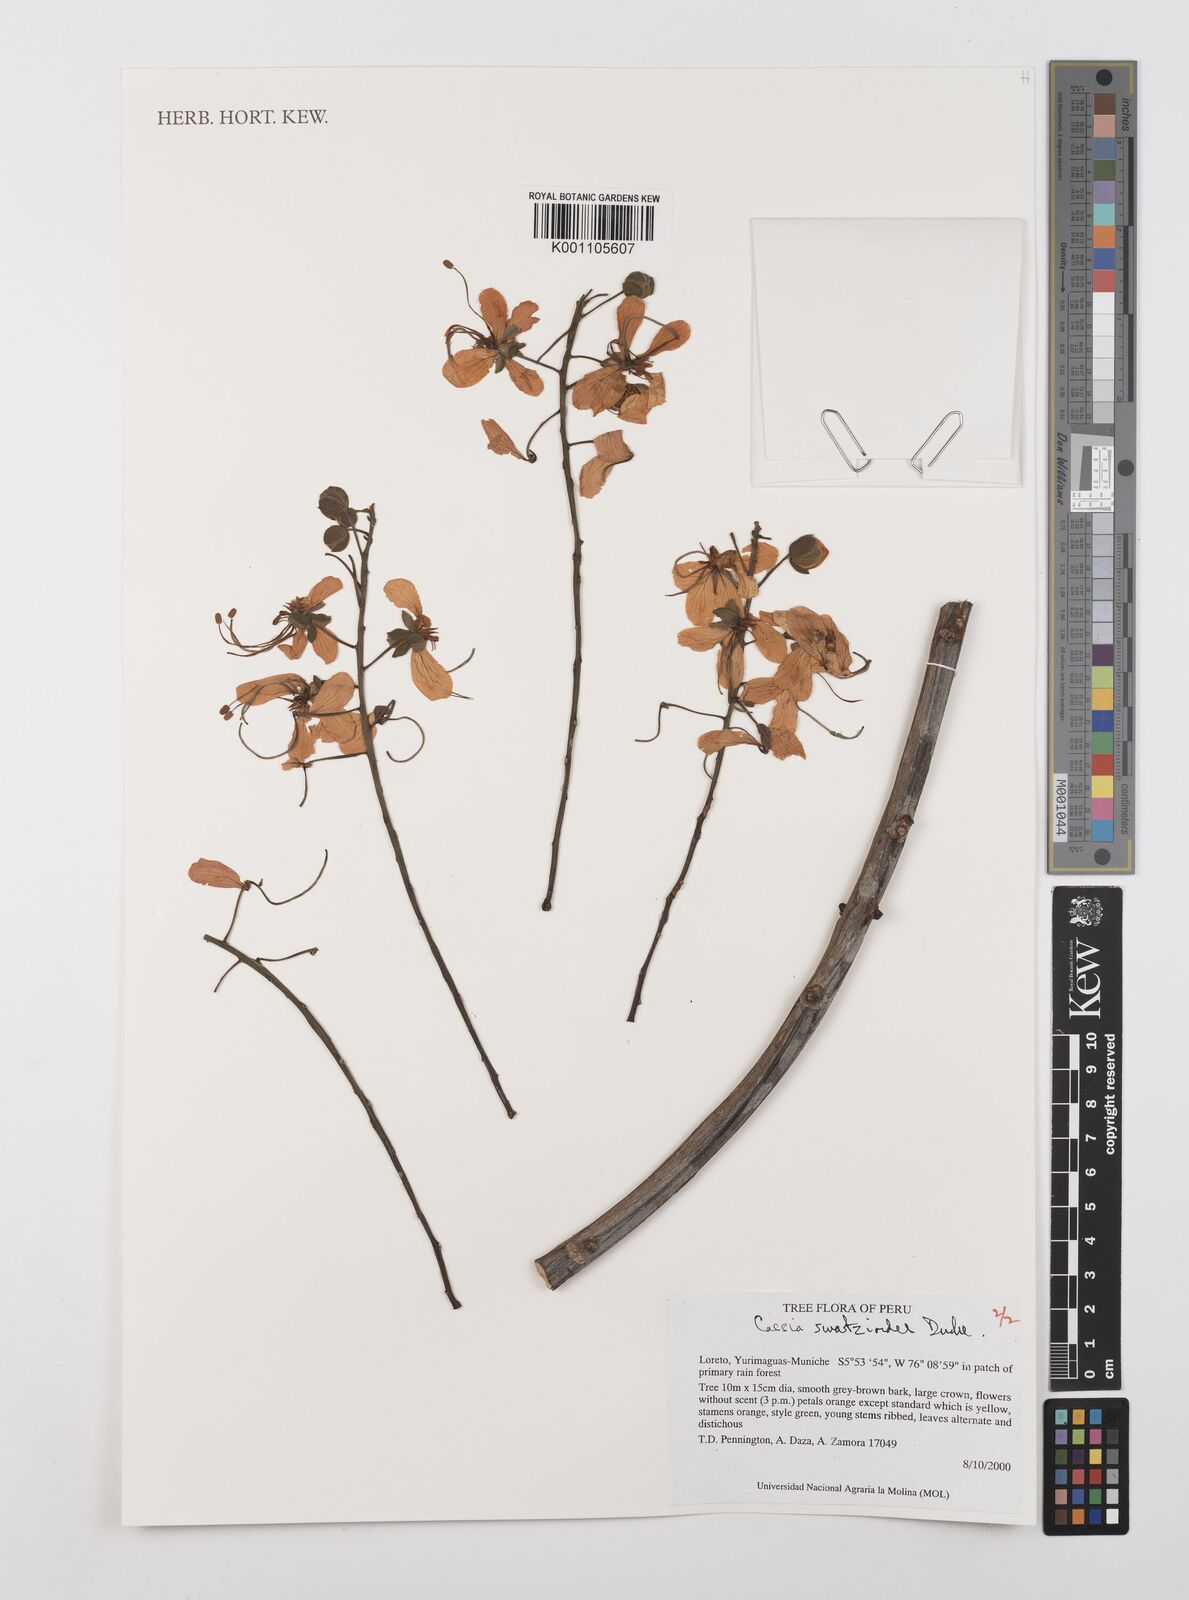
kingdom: Plantae
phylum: Tracheophyta
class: Magnoliopsida
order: Fabales
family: Fabaceae
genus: Cassia
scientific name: Cassia swartzioides
